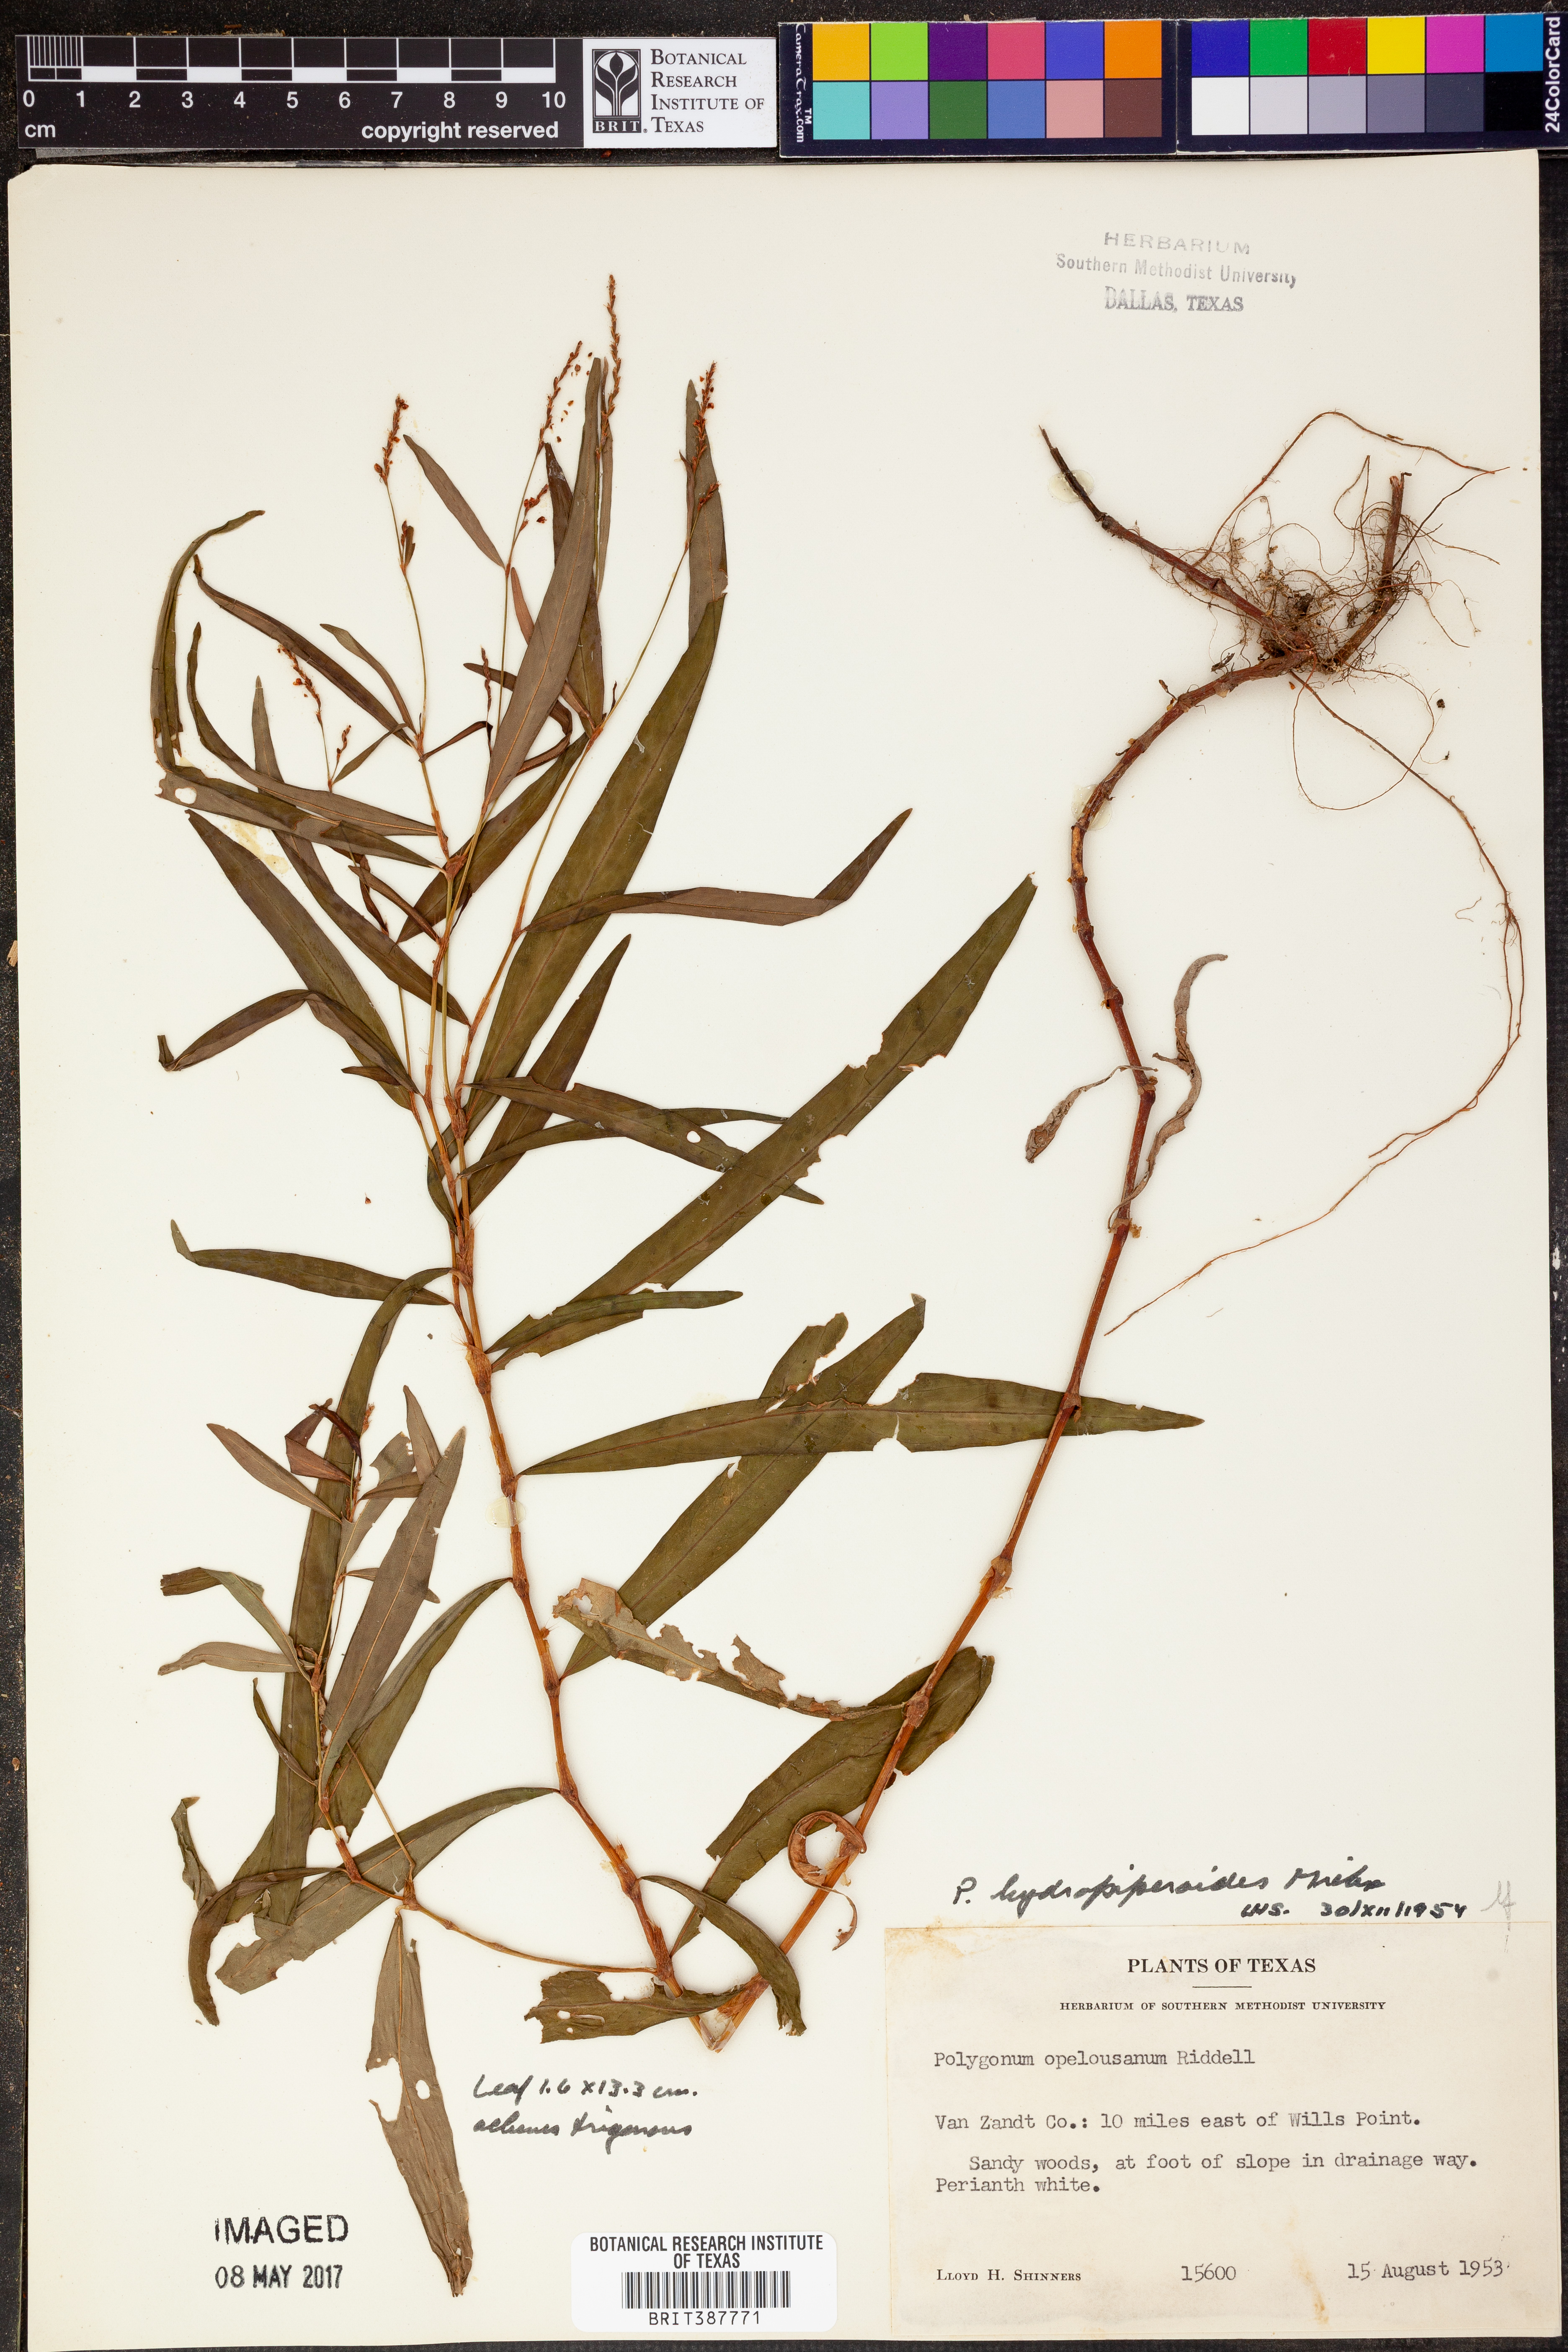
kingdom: Plantae
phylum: Tracheophyta
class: Magnoliopsida
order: Caryophyllales
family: Polygonaceae
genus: Persicaria
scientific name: Persicaria hydropiperoides
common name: Swamp smartweed
